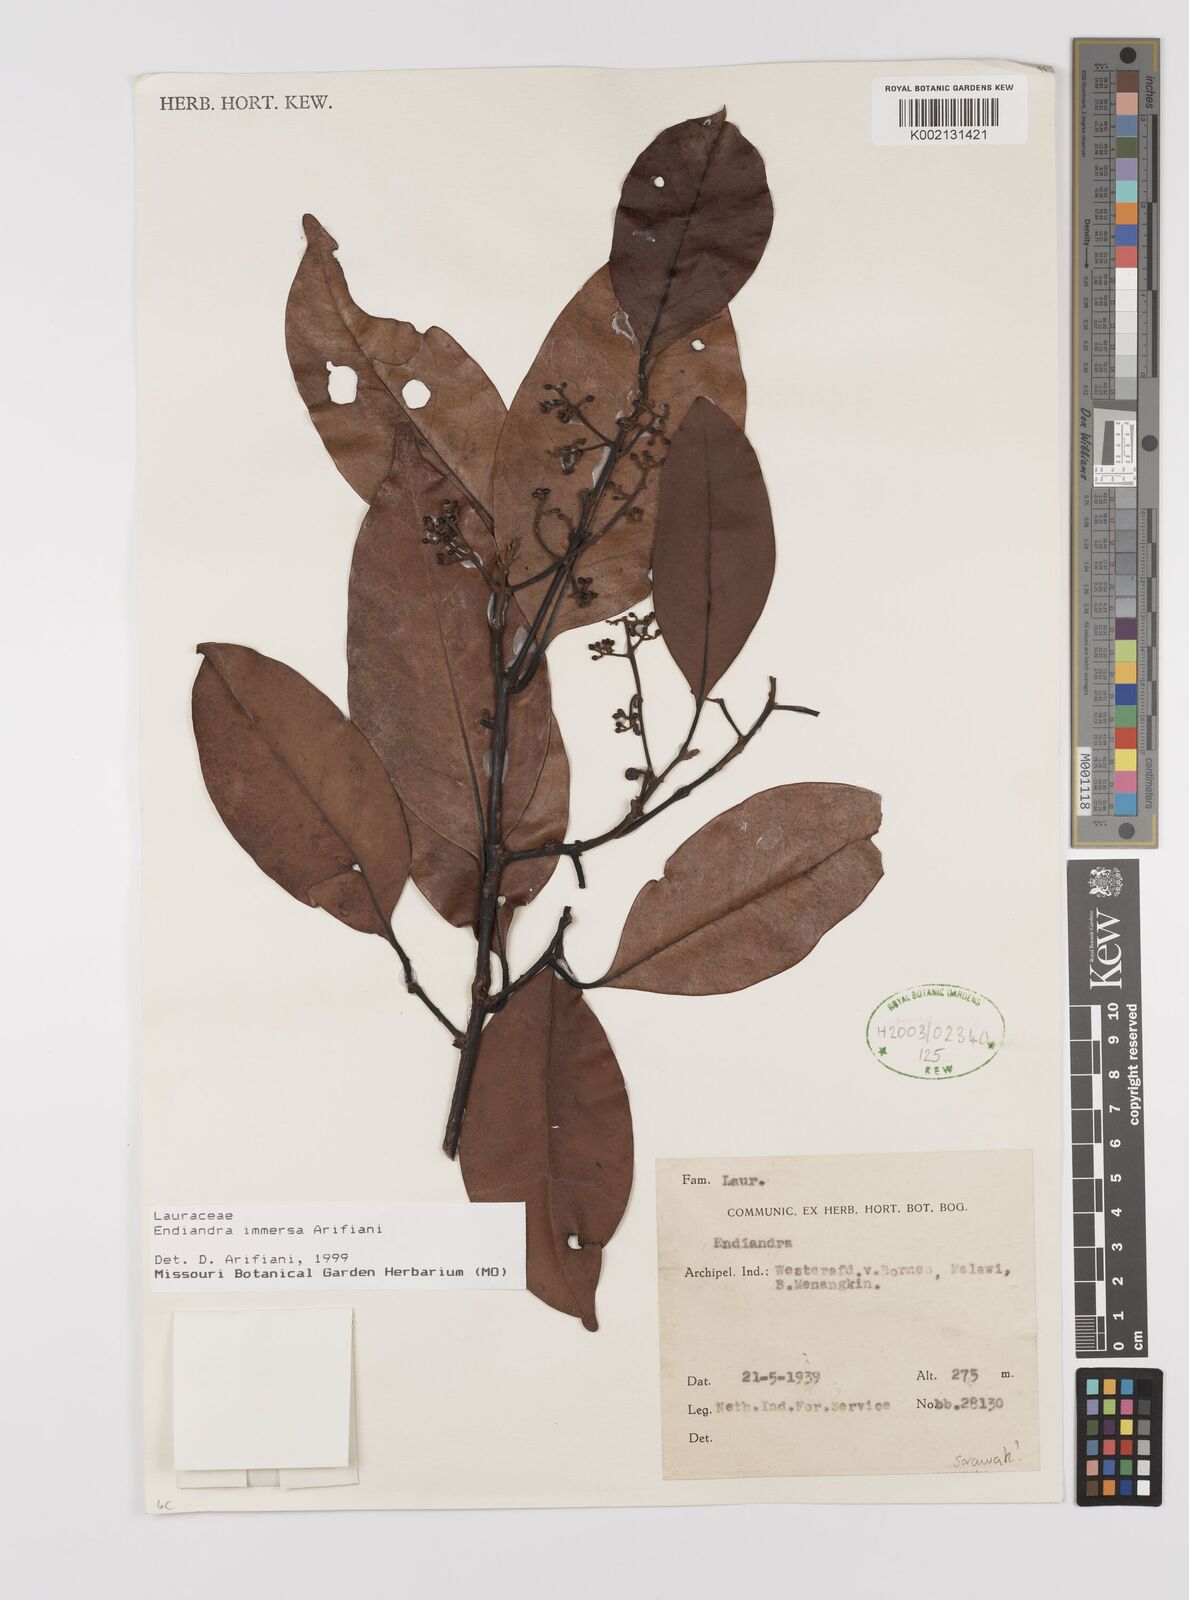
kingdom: Plantae
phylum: Tracheophyta
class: Magnoliopsida
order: Laurales
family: Lauraceae
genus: Endiandra
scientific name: Endiandra immersa
